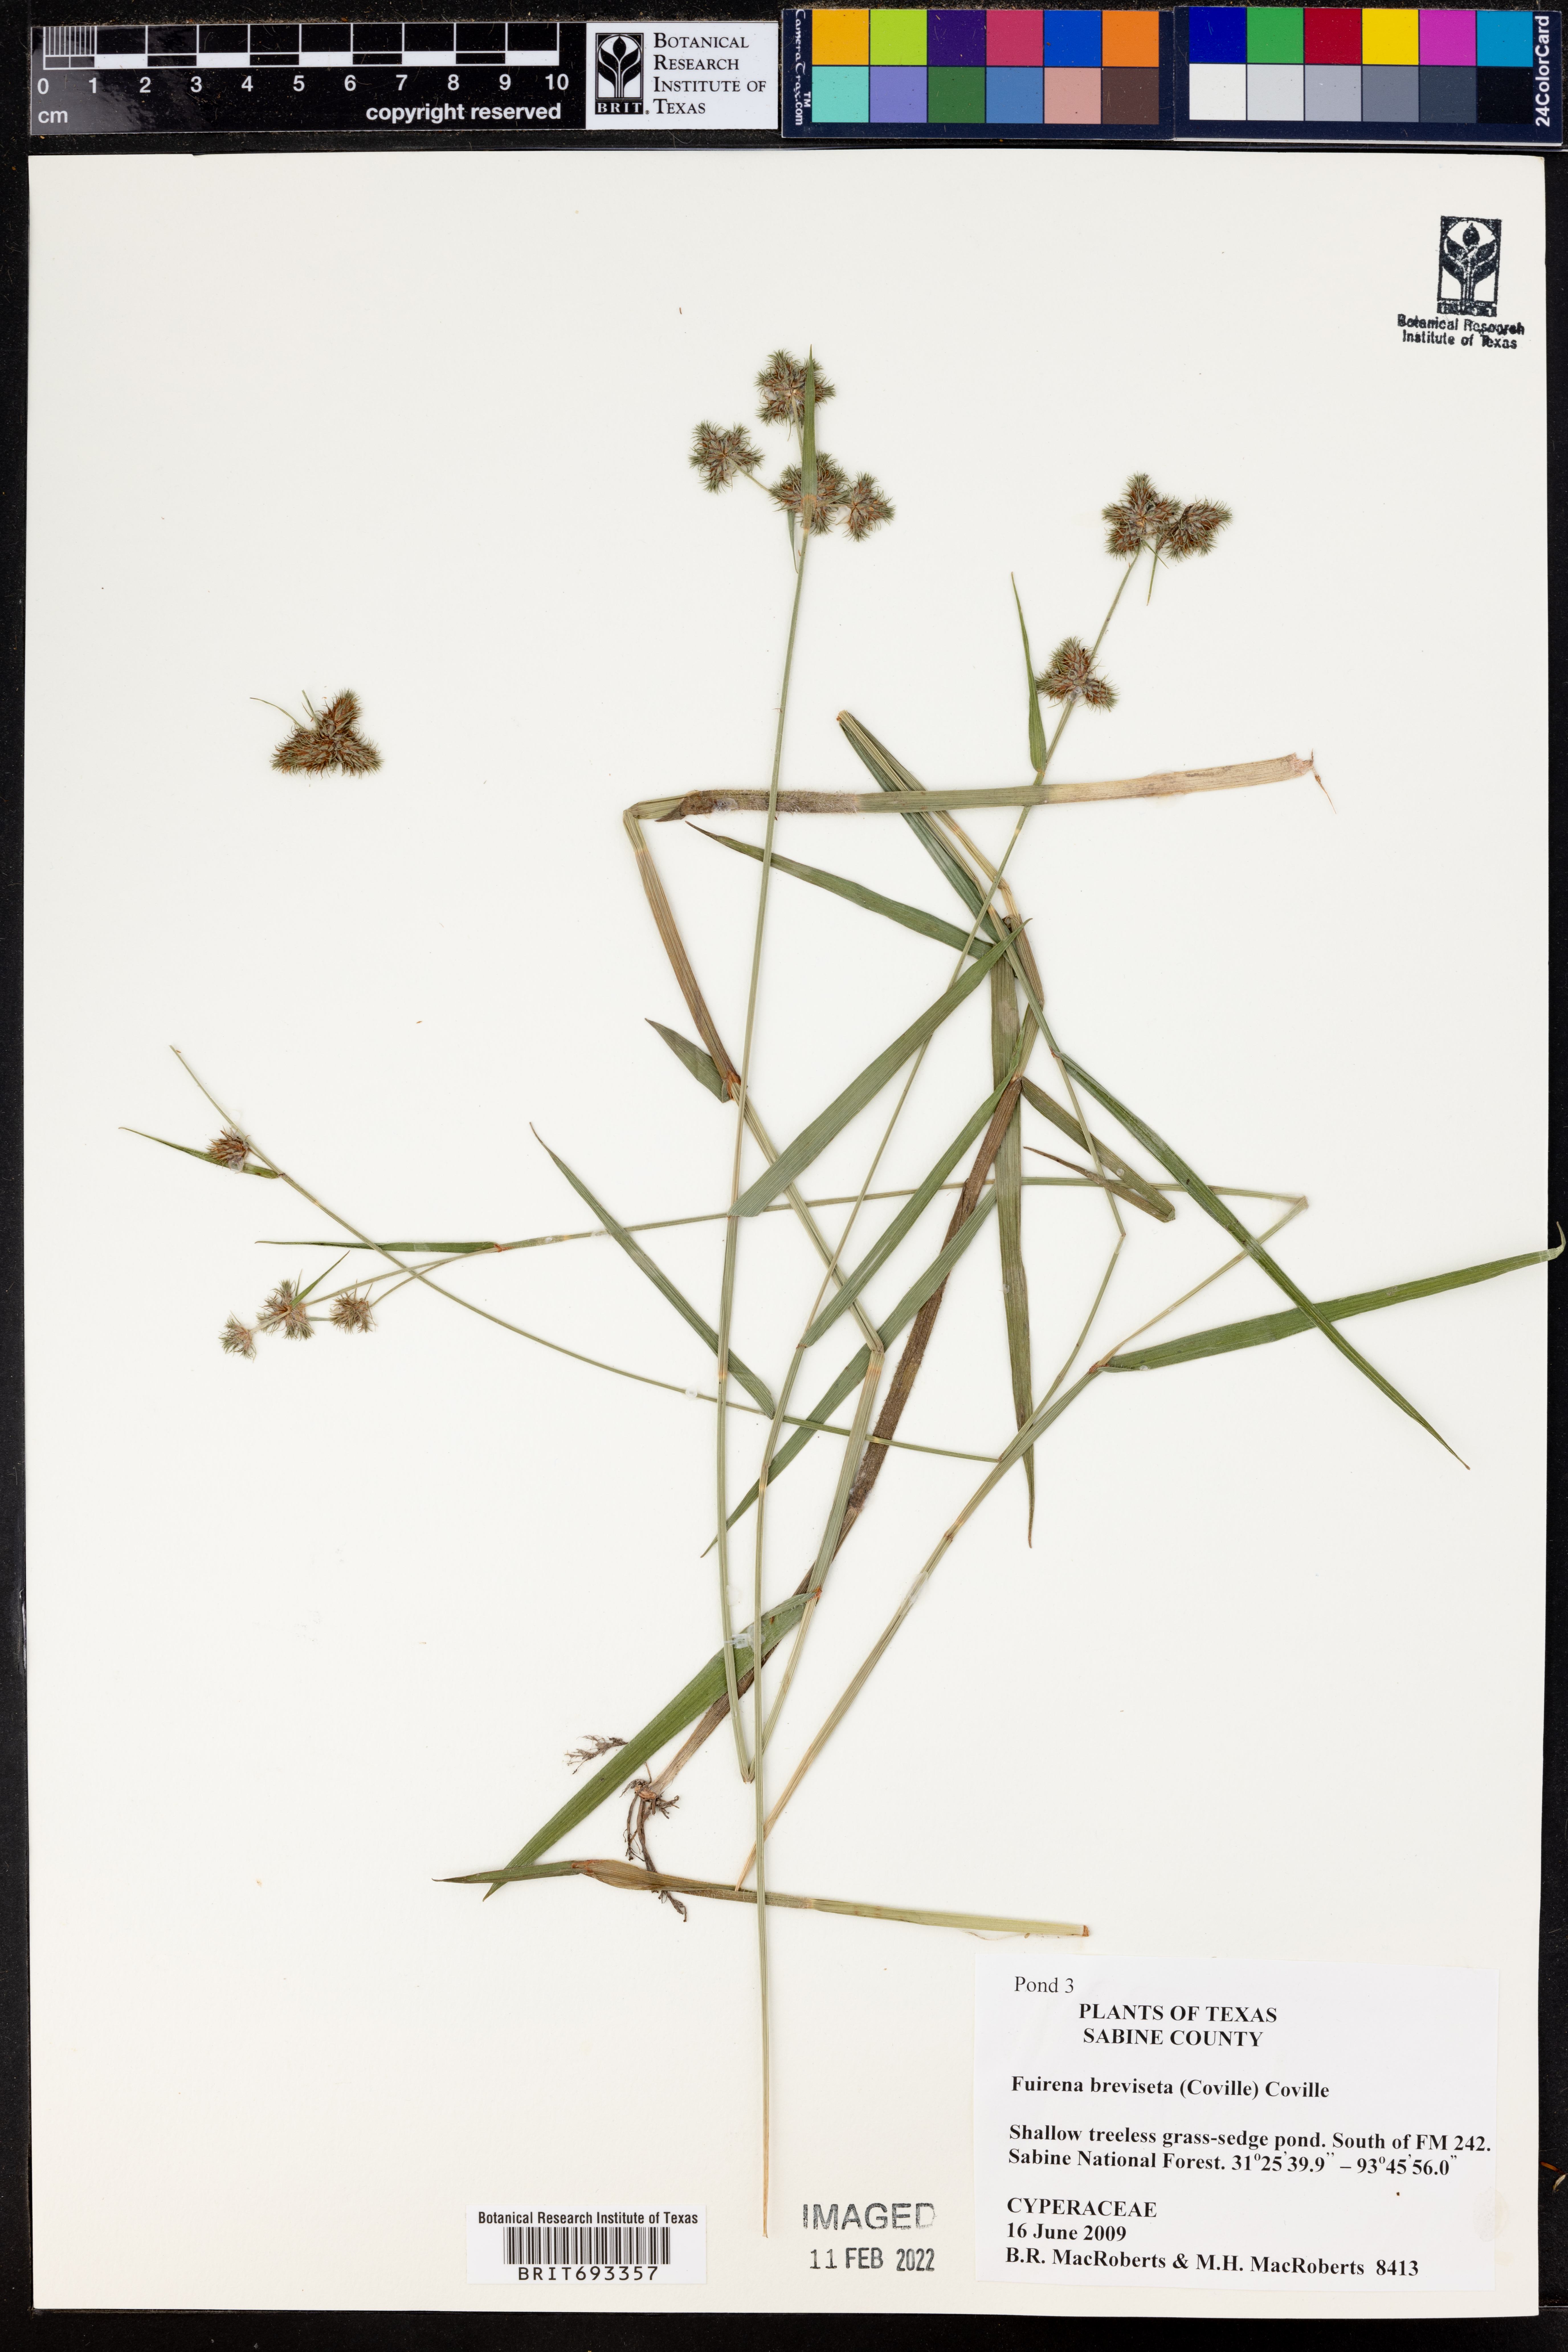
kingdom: Plantae
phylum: Tracheophyta
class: Liliopsida
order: Poales
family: Cyperaceae
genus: Fuirena
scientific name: Fuirena breviseta
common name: Saltmarsh umbrella sedge
